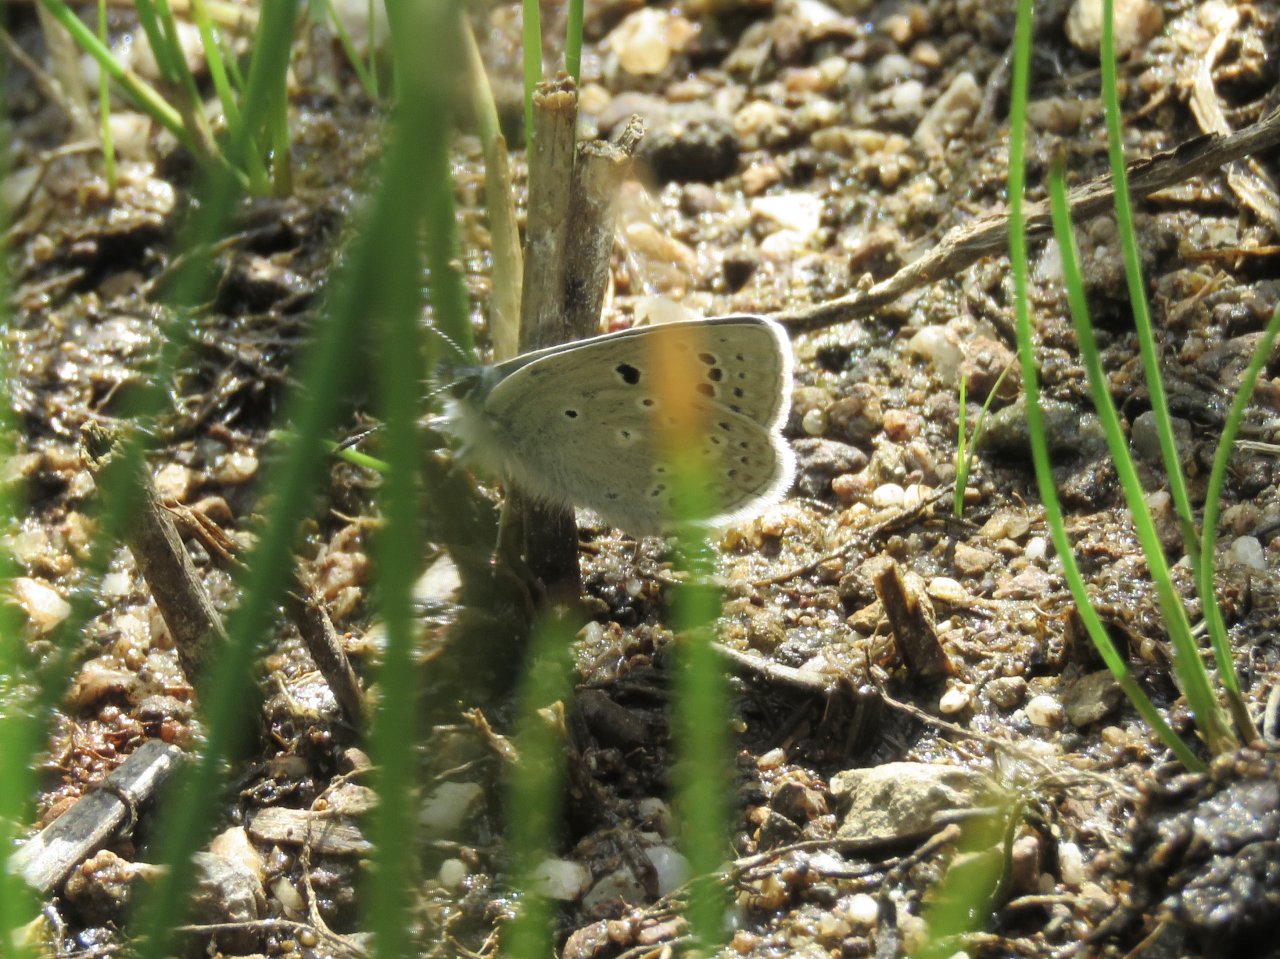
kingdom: Animalia
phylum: Arthropoda
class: Insecta
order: Lepidoptera
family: Lycaenidae
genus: Icaricia
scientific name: Icaricia icarioides
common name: Boisduval's Blue
